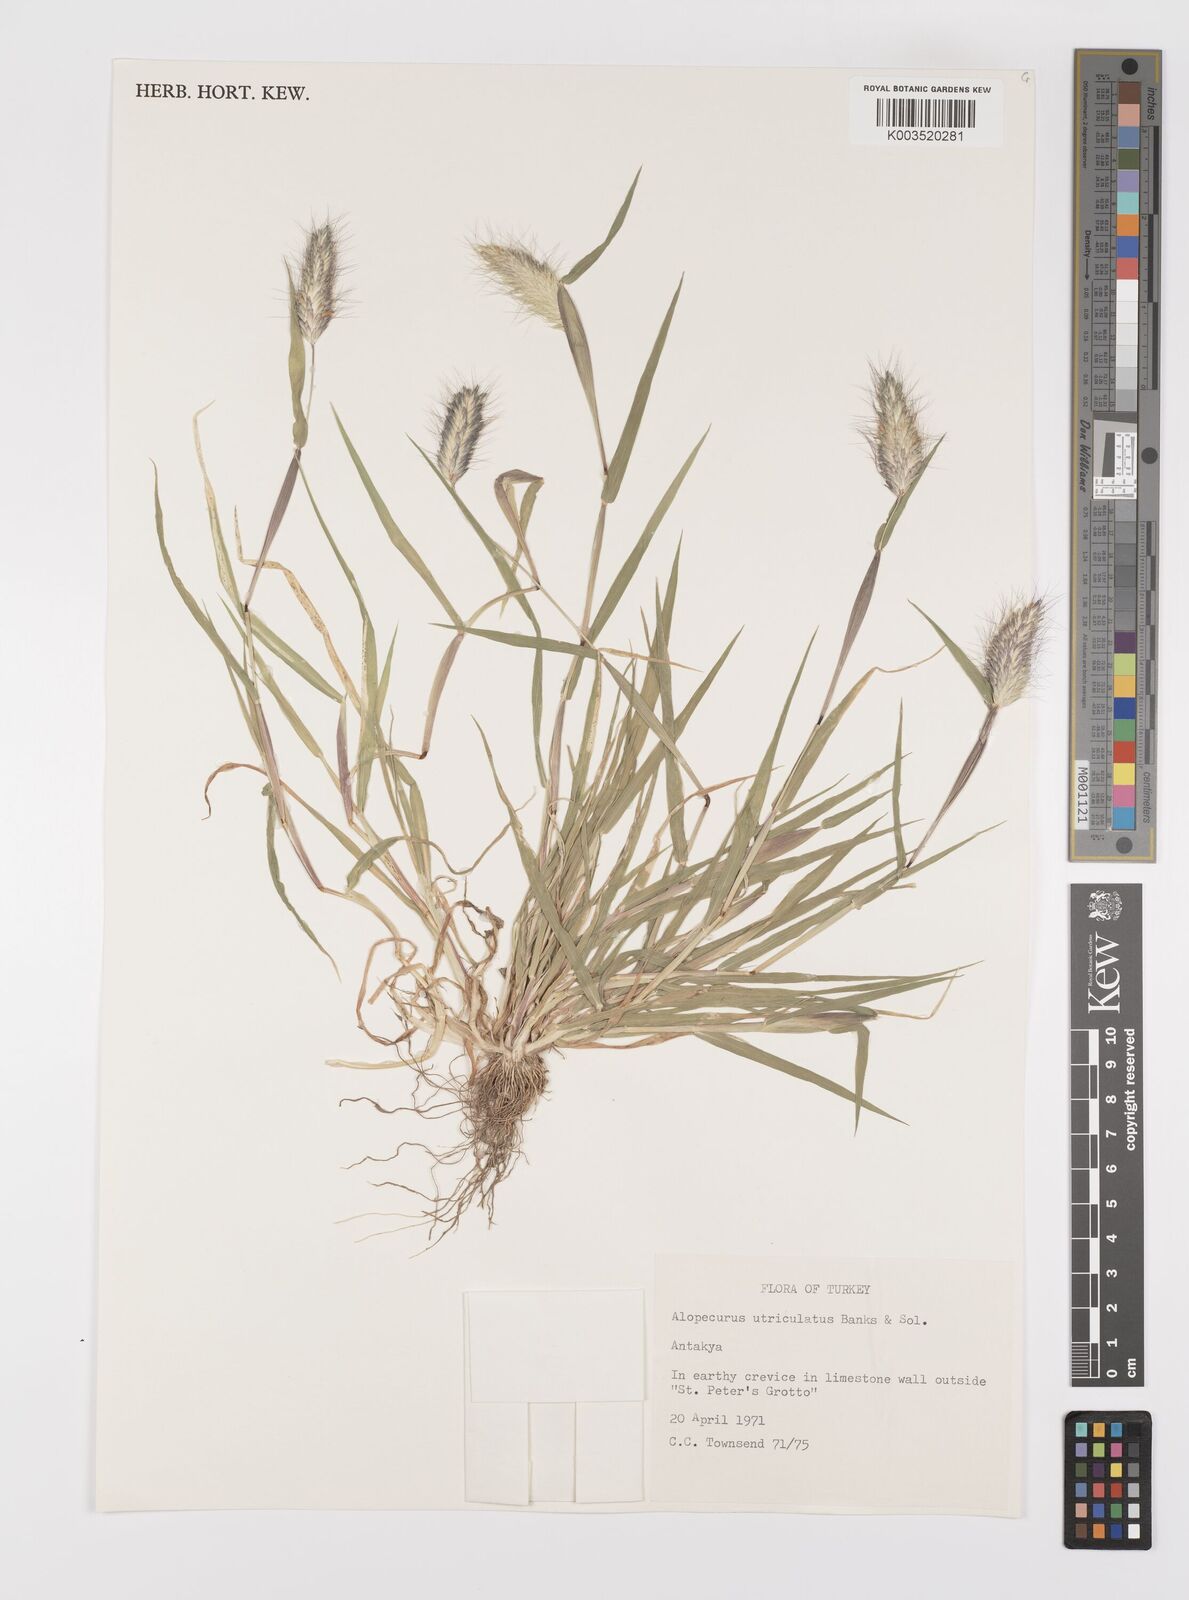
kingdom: Plantae
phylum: Tracheophyta
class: Liliopsida
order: Poales
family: Poaceae
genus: Alopecurus
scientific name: Alopecurus utriculatus
